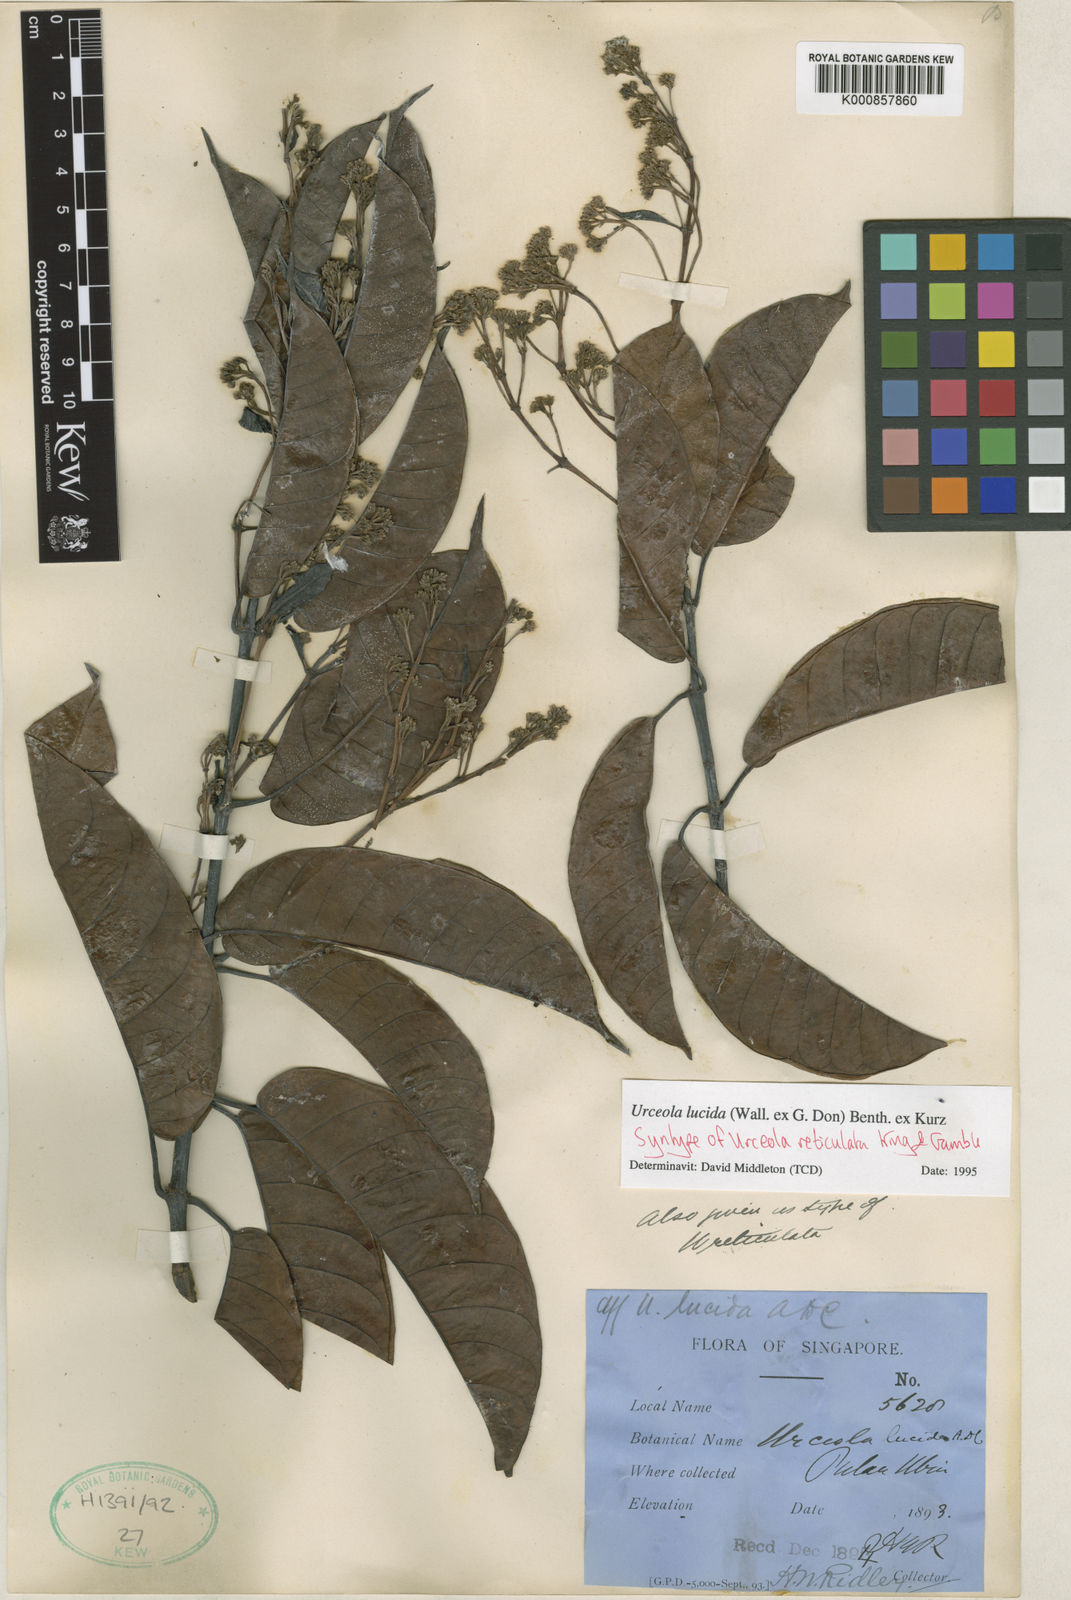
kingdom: Plantae
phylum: Tracheophyta
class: Magnoliopsida
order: Gentianales
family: Apocynaceae
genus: Urceola
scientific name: Urceola lucida
